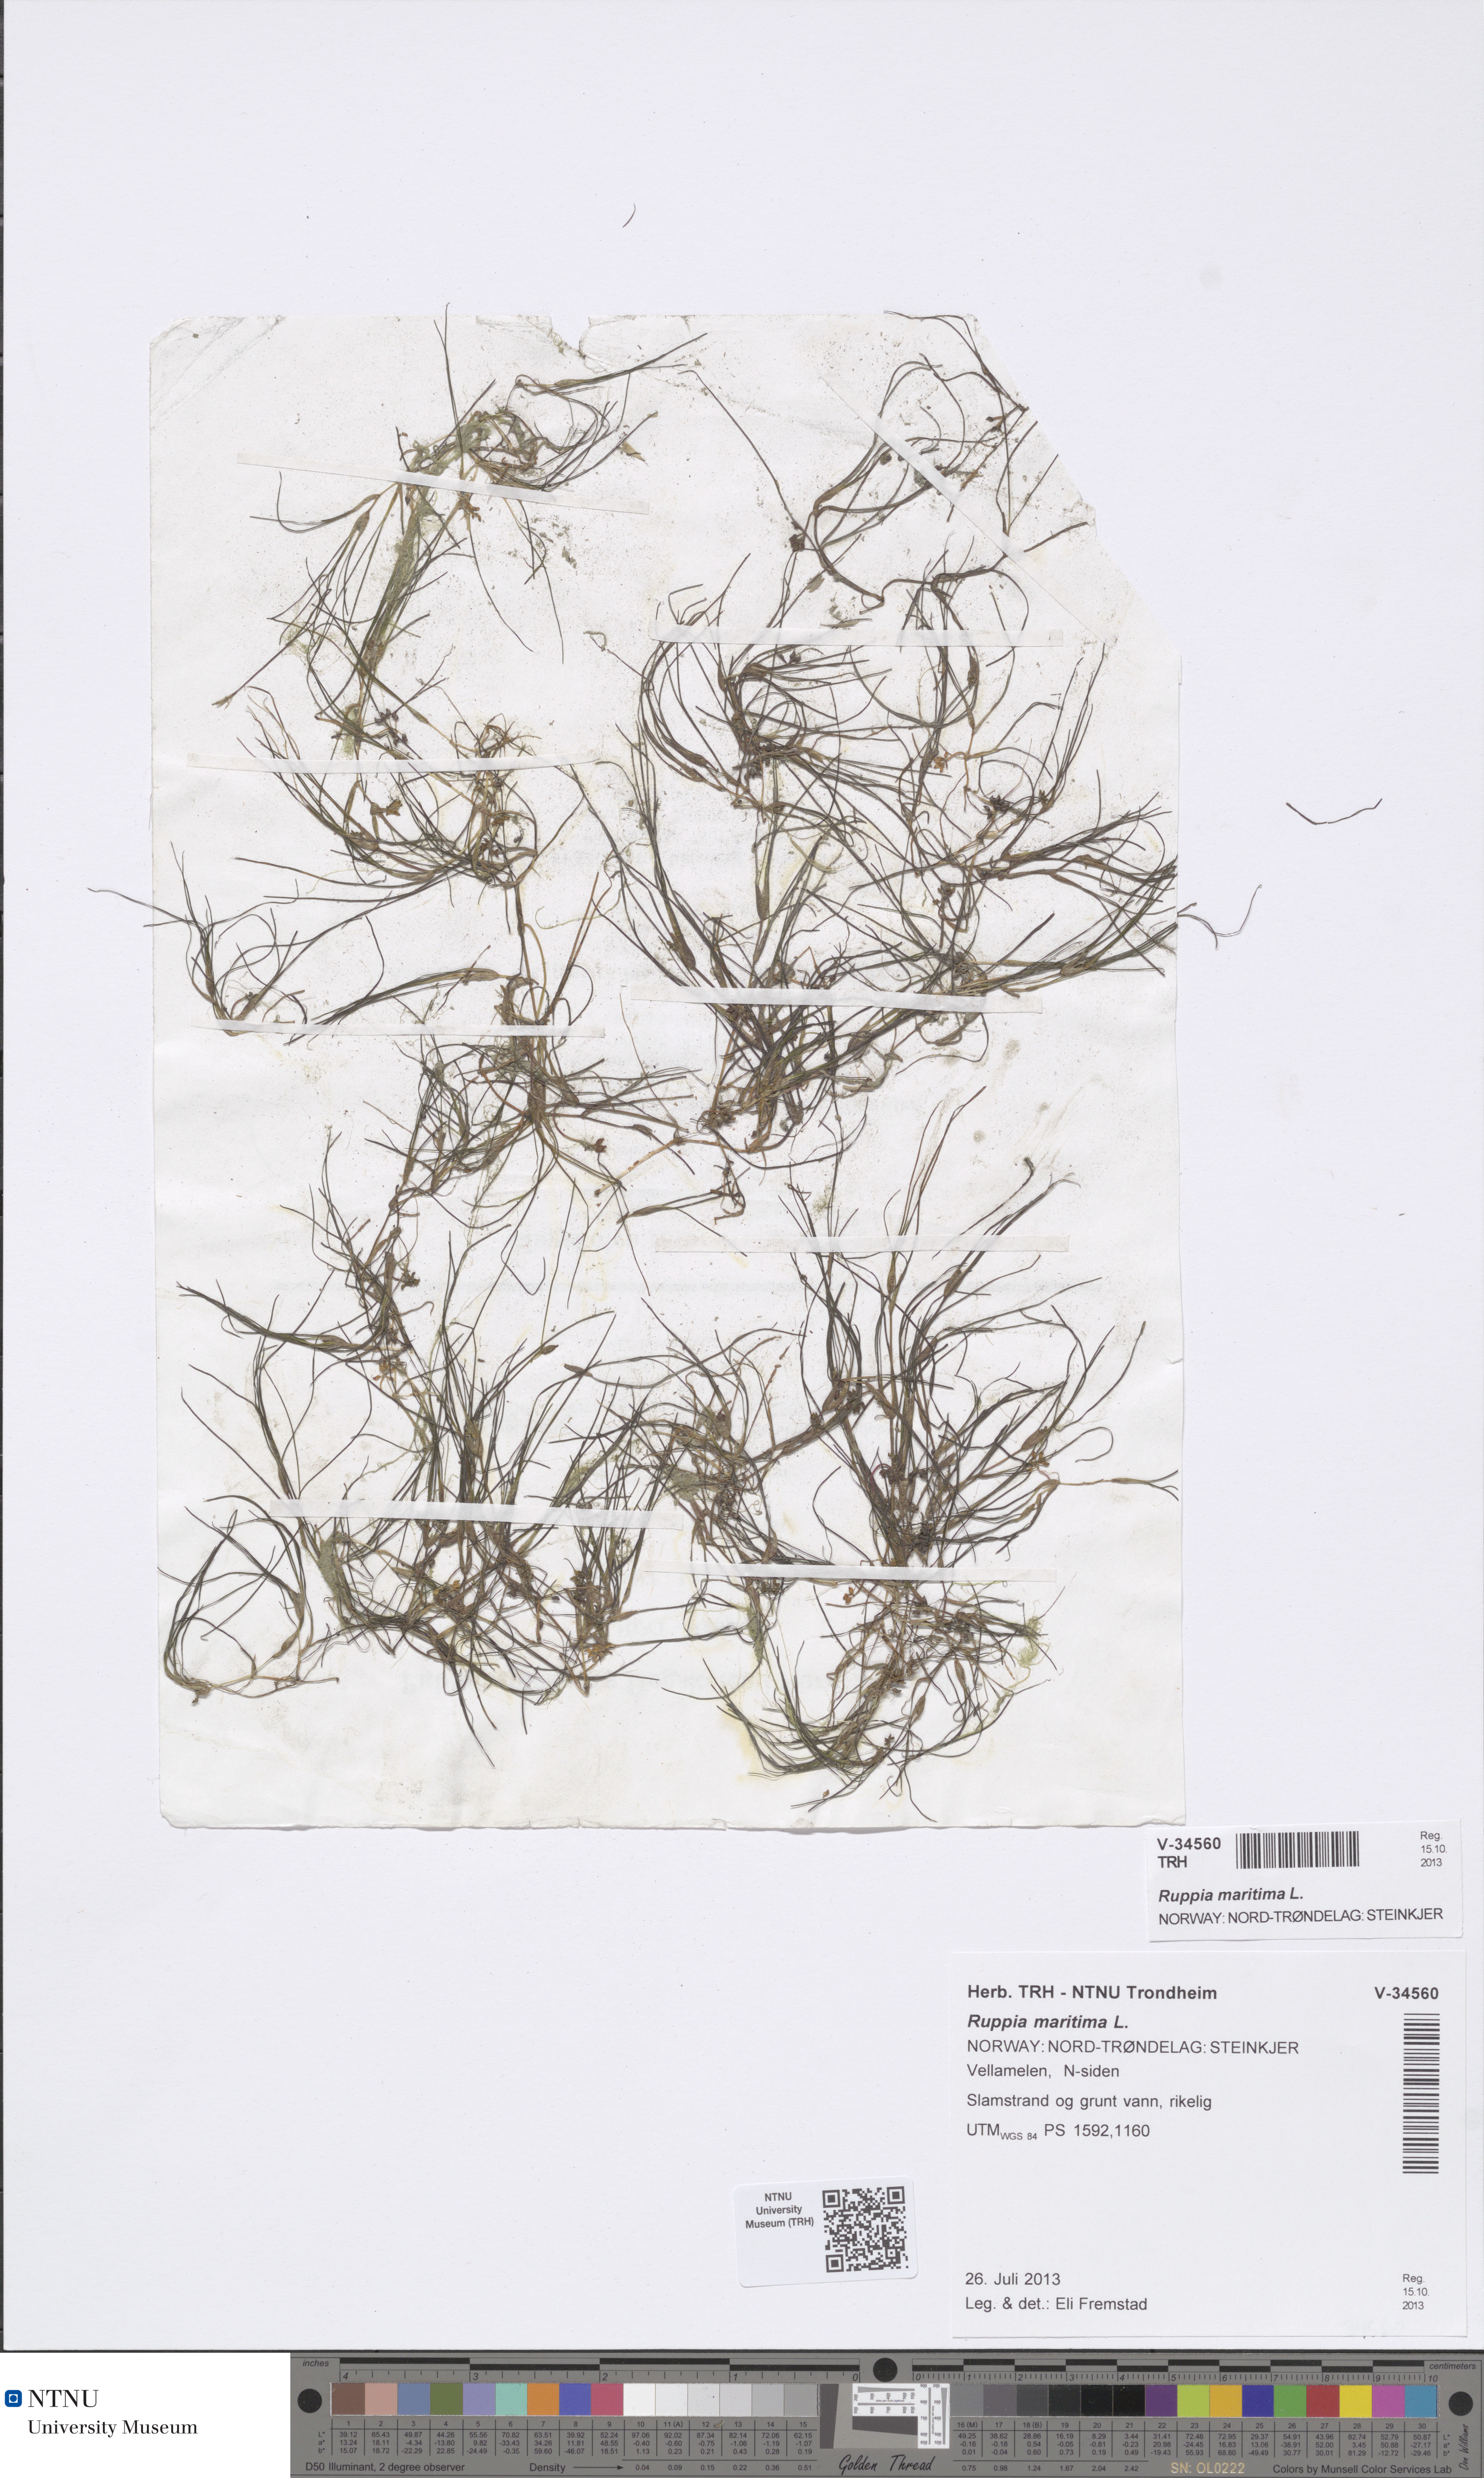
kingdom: Plantae
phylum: Tracheophyta
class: Liliopsida
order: Alismatales
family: Ruppiaceae
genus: Ruppia
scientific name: Ruppia maritima
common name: Beaked tasselweed
